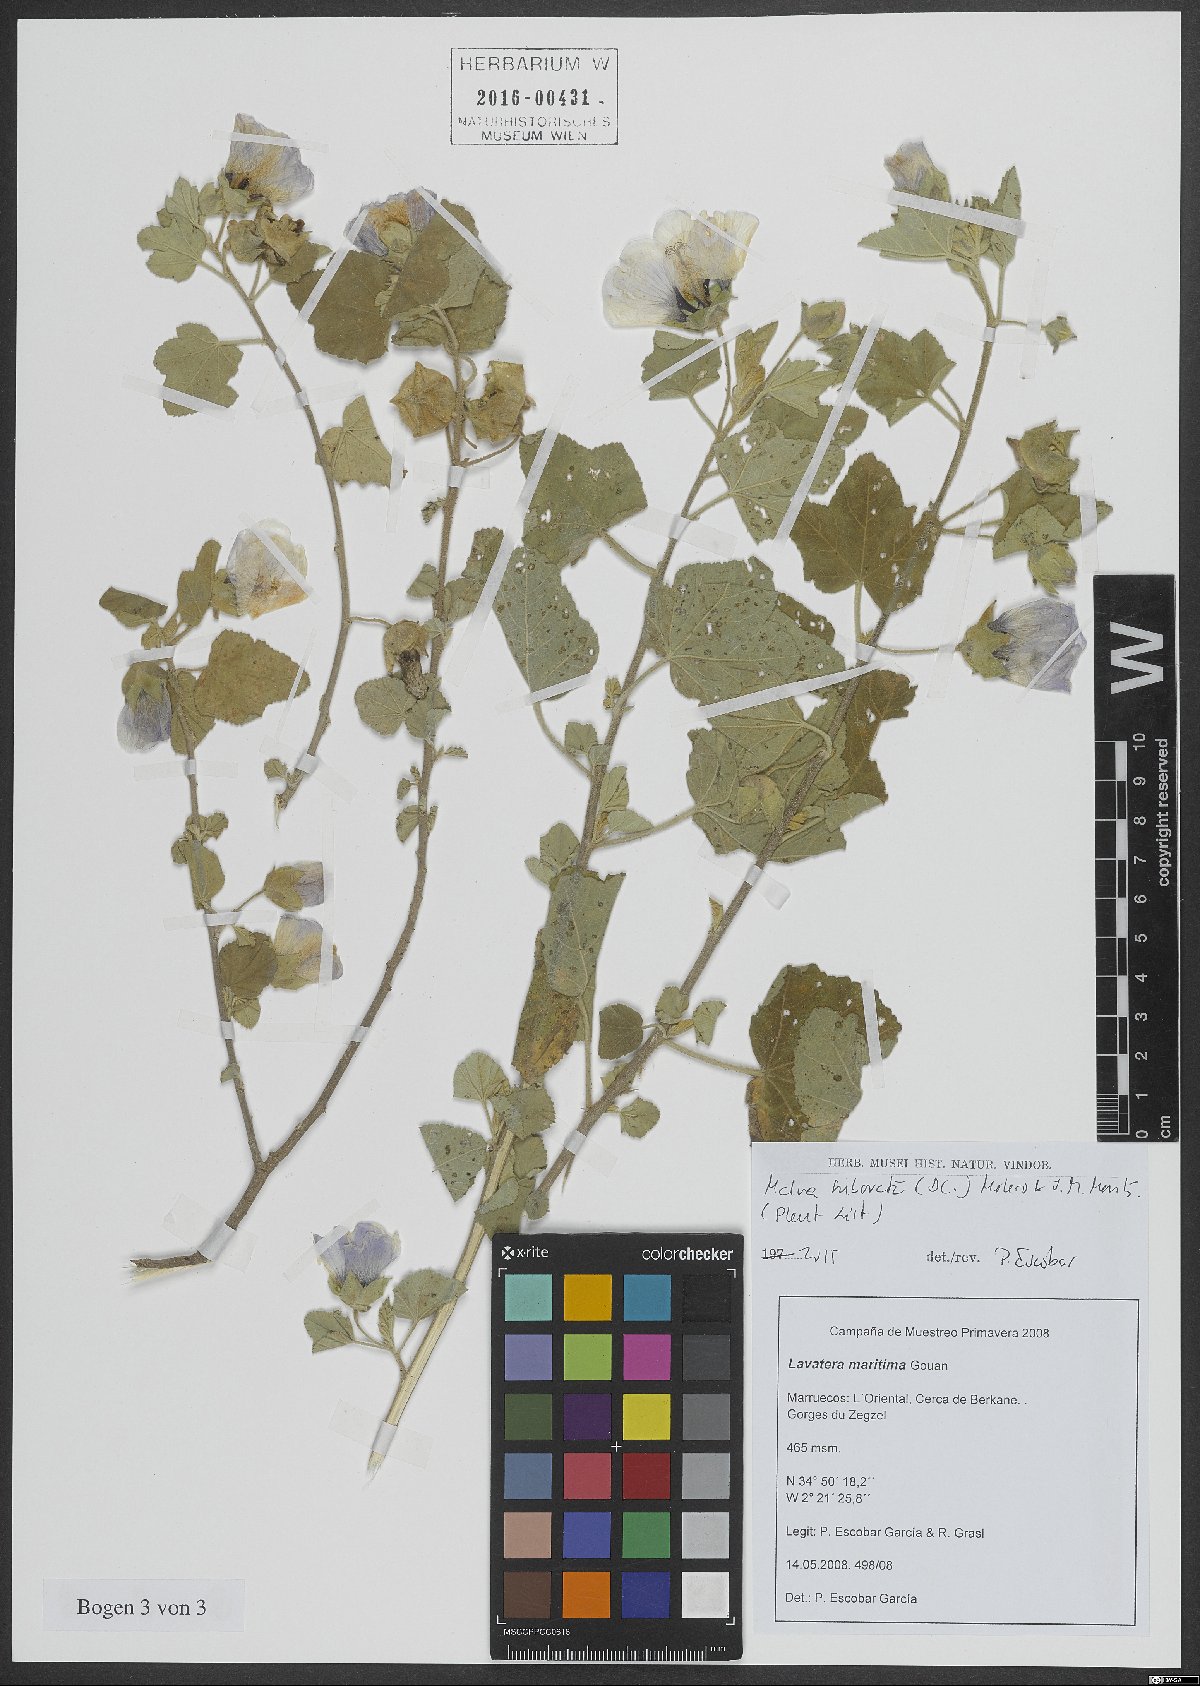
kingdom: Plantae
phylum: Tracheophyta
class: Magnoliopsida
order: Malvales
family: Malvaceae
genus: Malva
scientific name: Malva subovata
